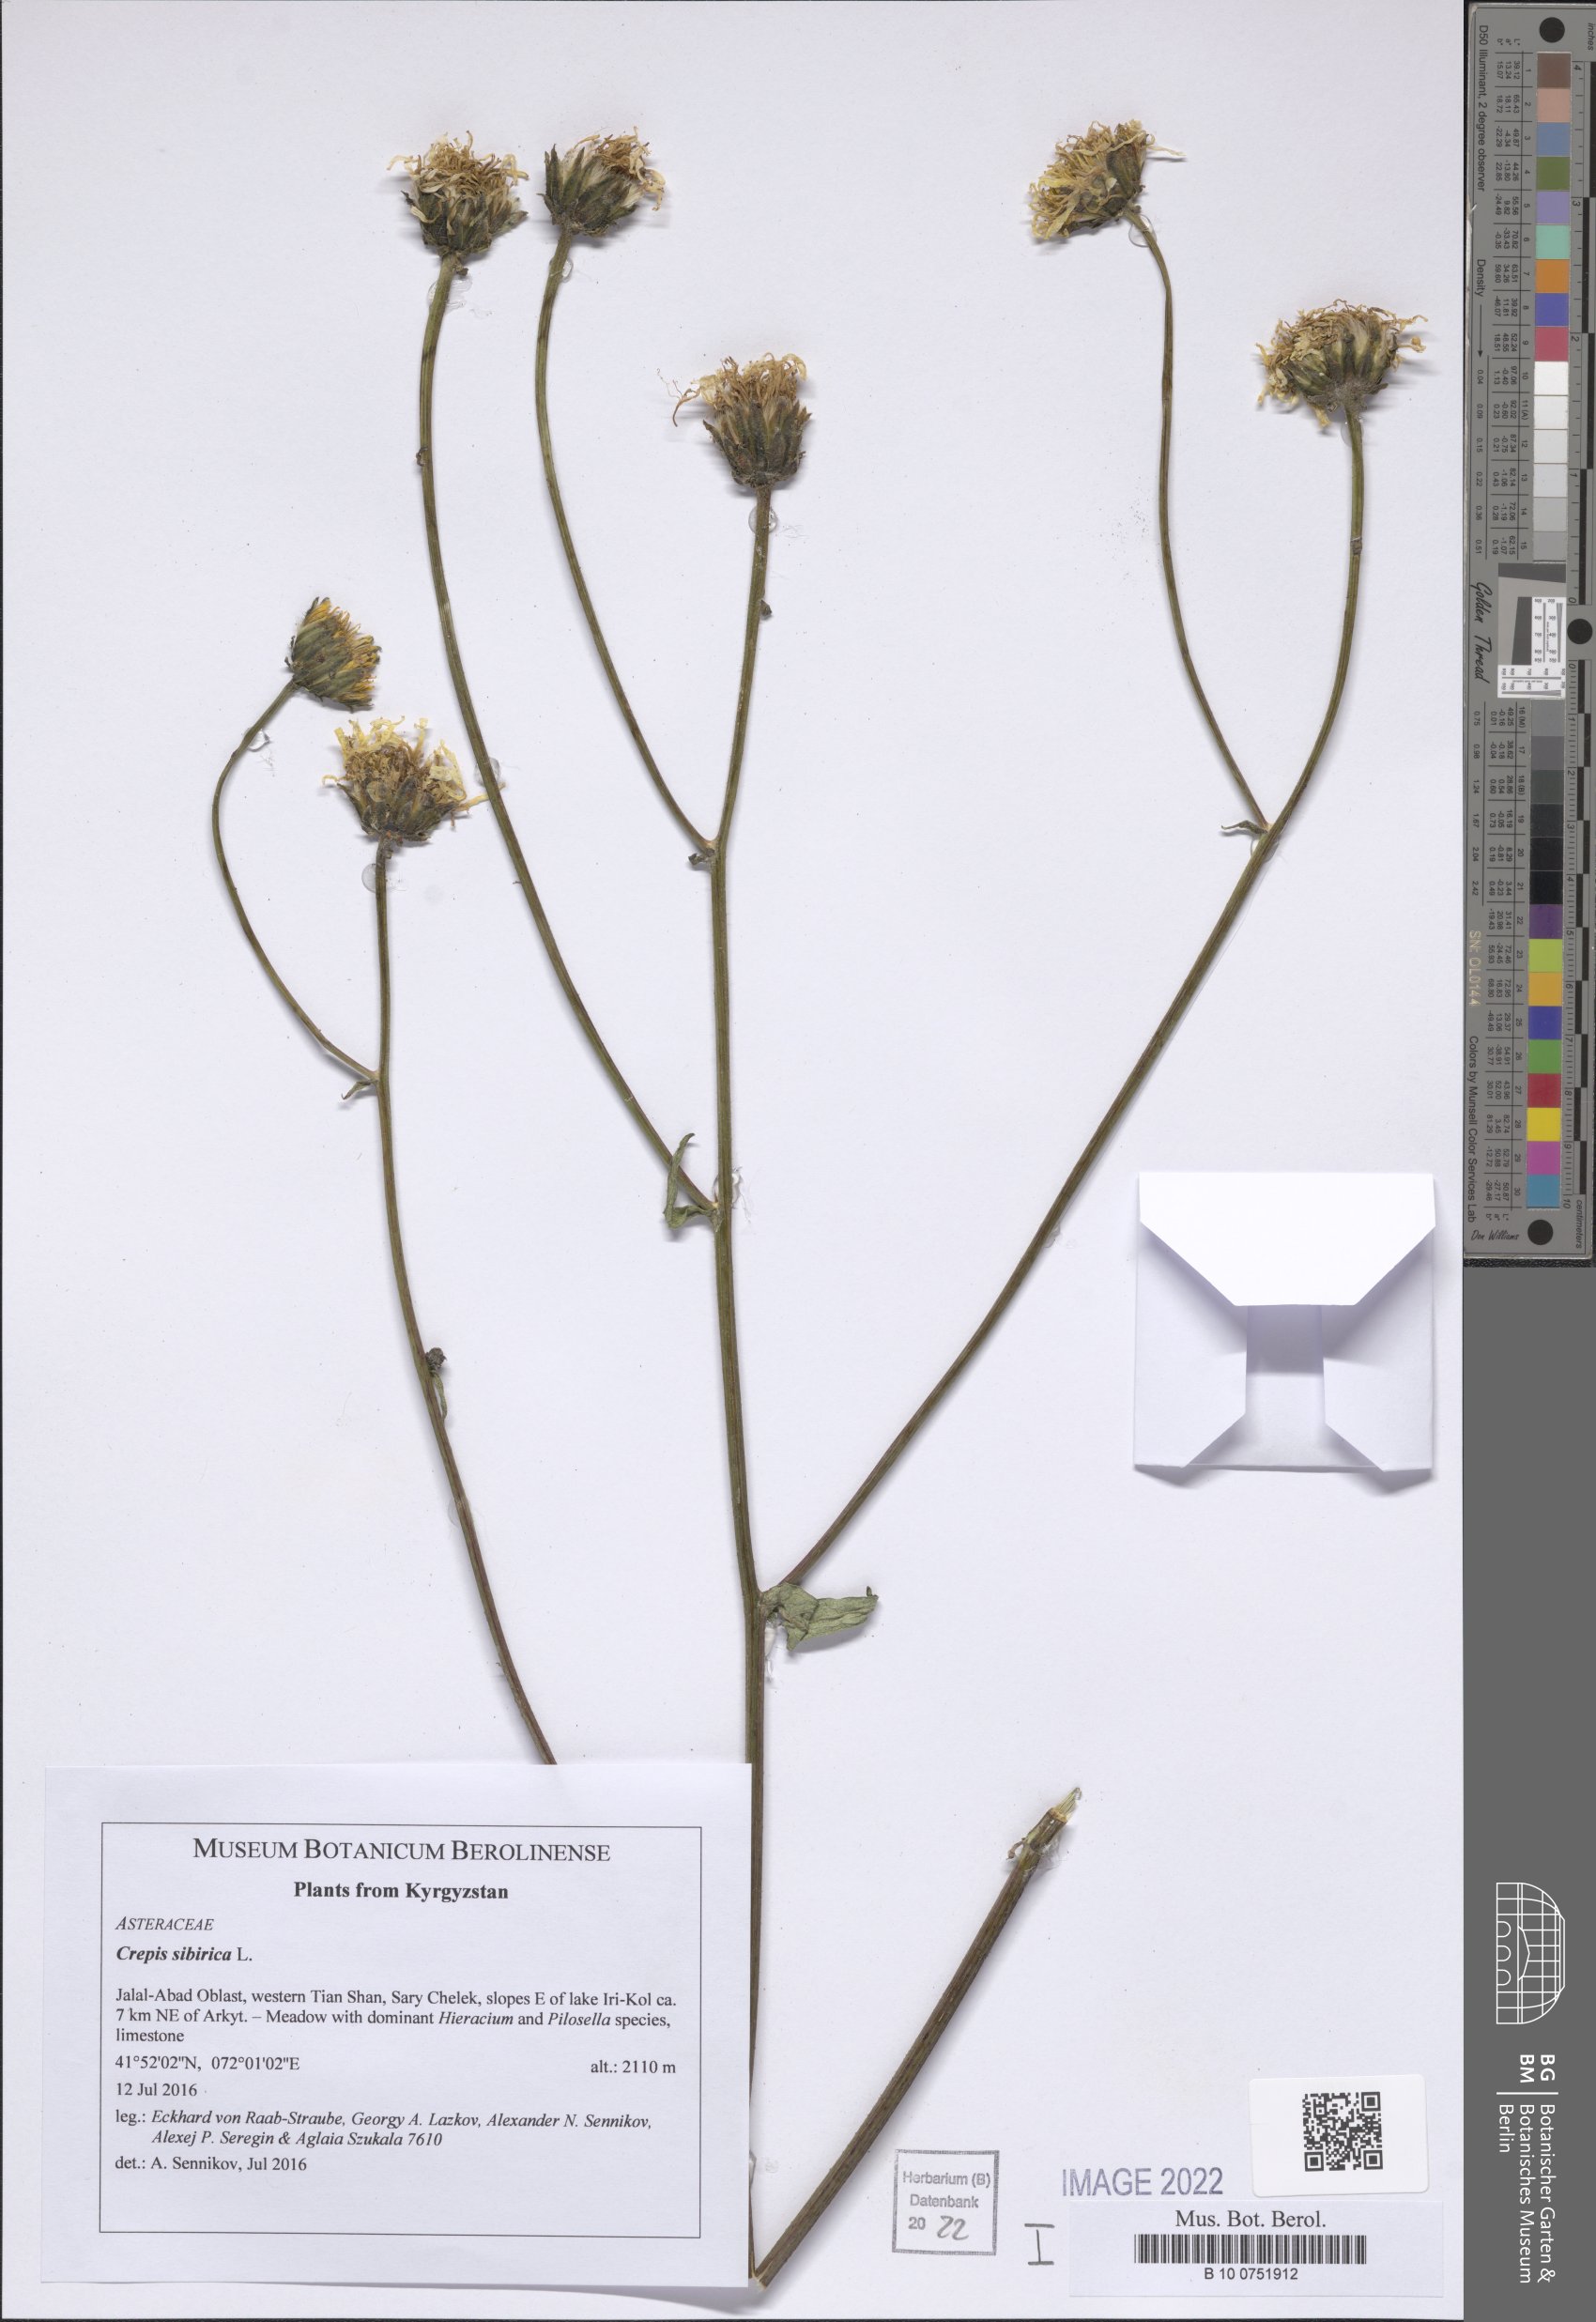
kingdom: Plantae
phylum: Tracheophyta
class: Magnoliopsida
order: Asterales
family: Asteraceae
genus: Crepis
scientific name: Crepis sibirica
